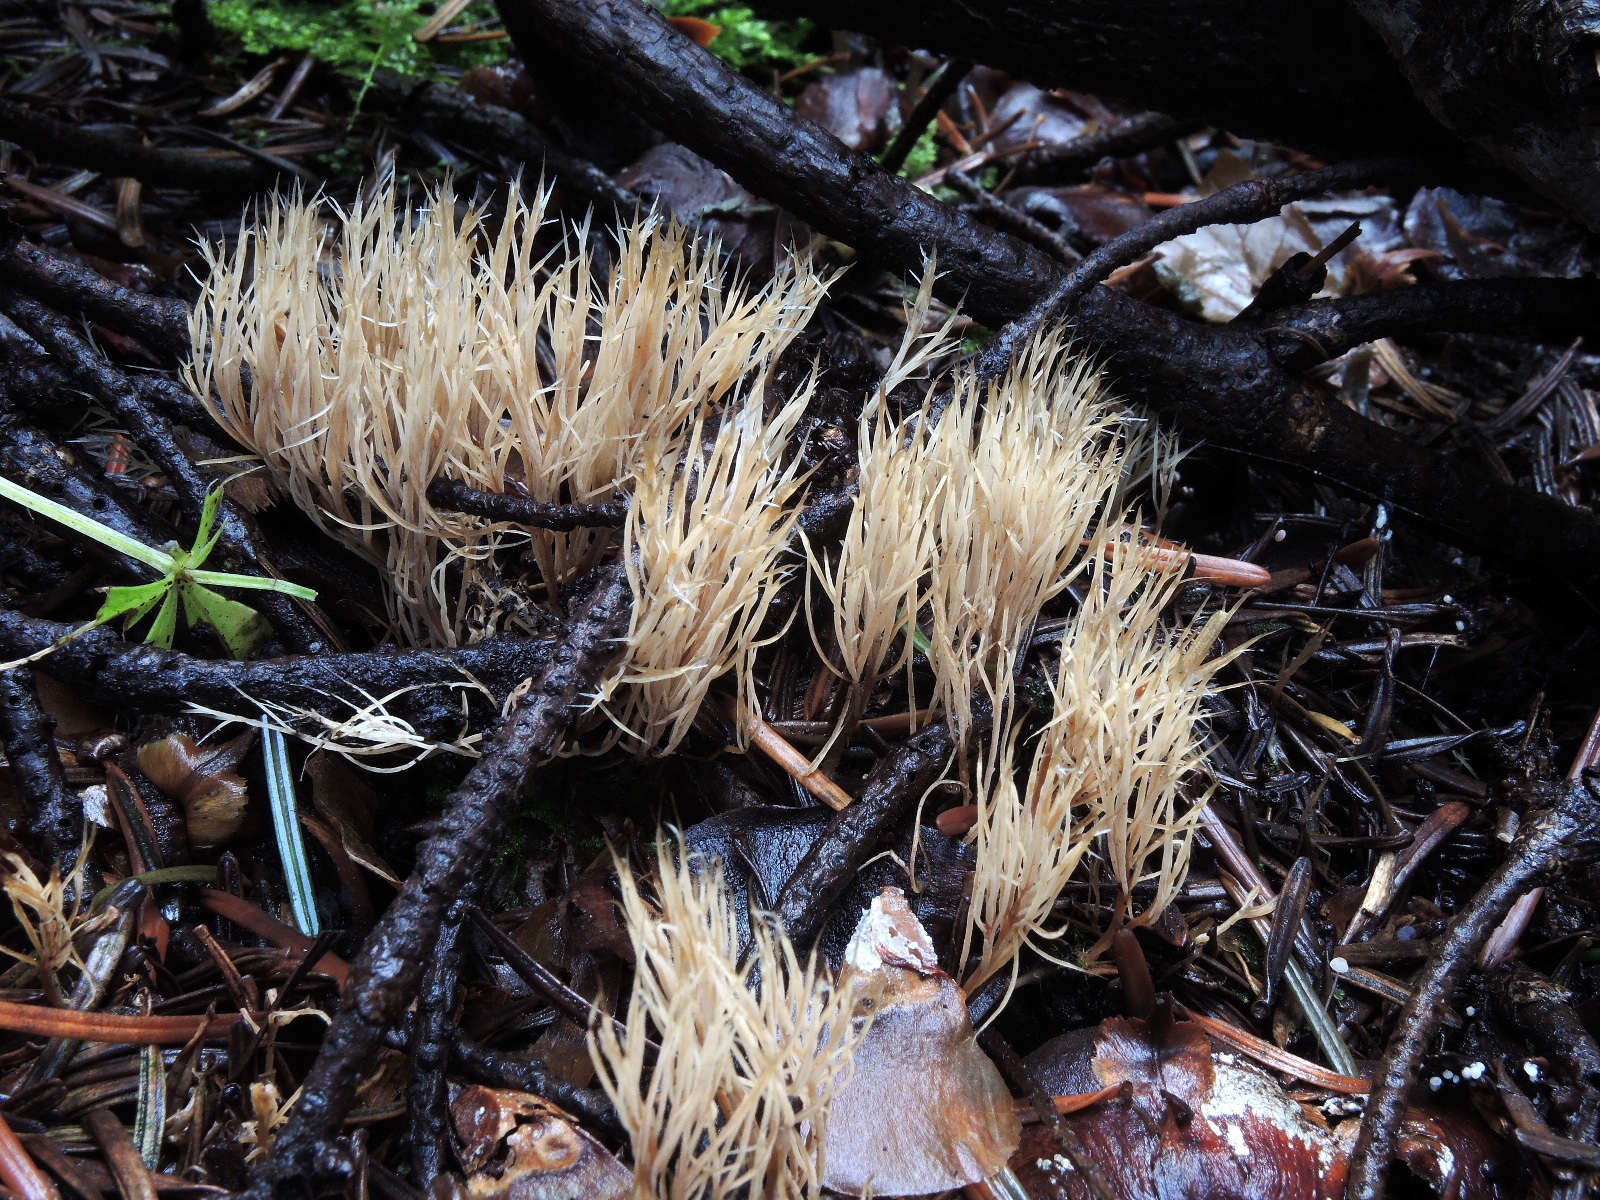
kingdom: Fungi
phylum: Basidiomycota
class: Agaricomycetes
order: Agaricales
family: Pterulaceae
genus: Pterula
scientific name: Pterula multifida
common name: busket fjerkølle
